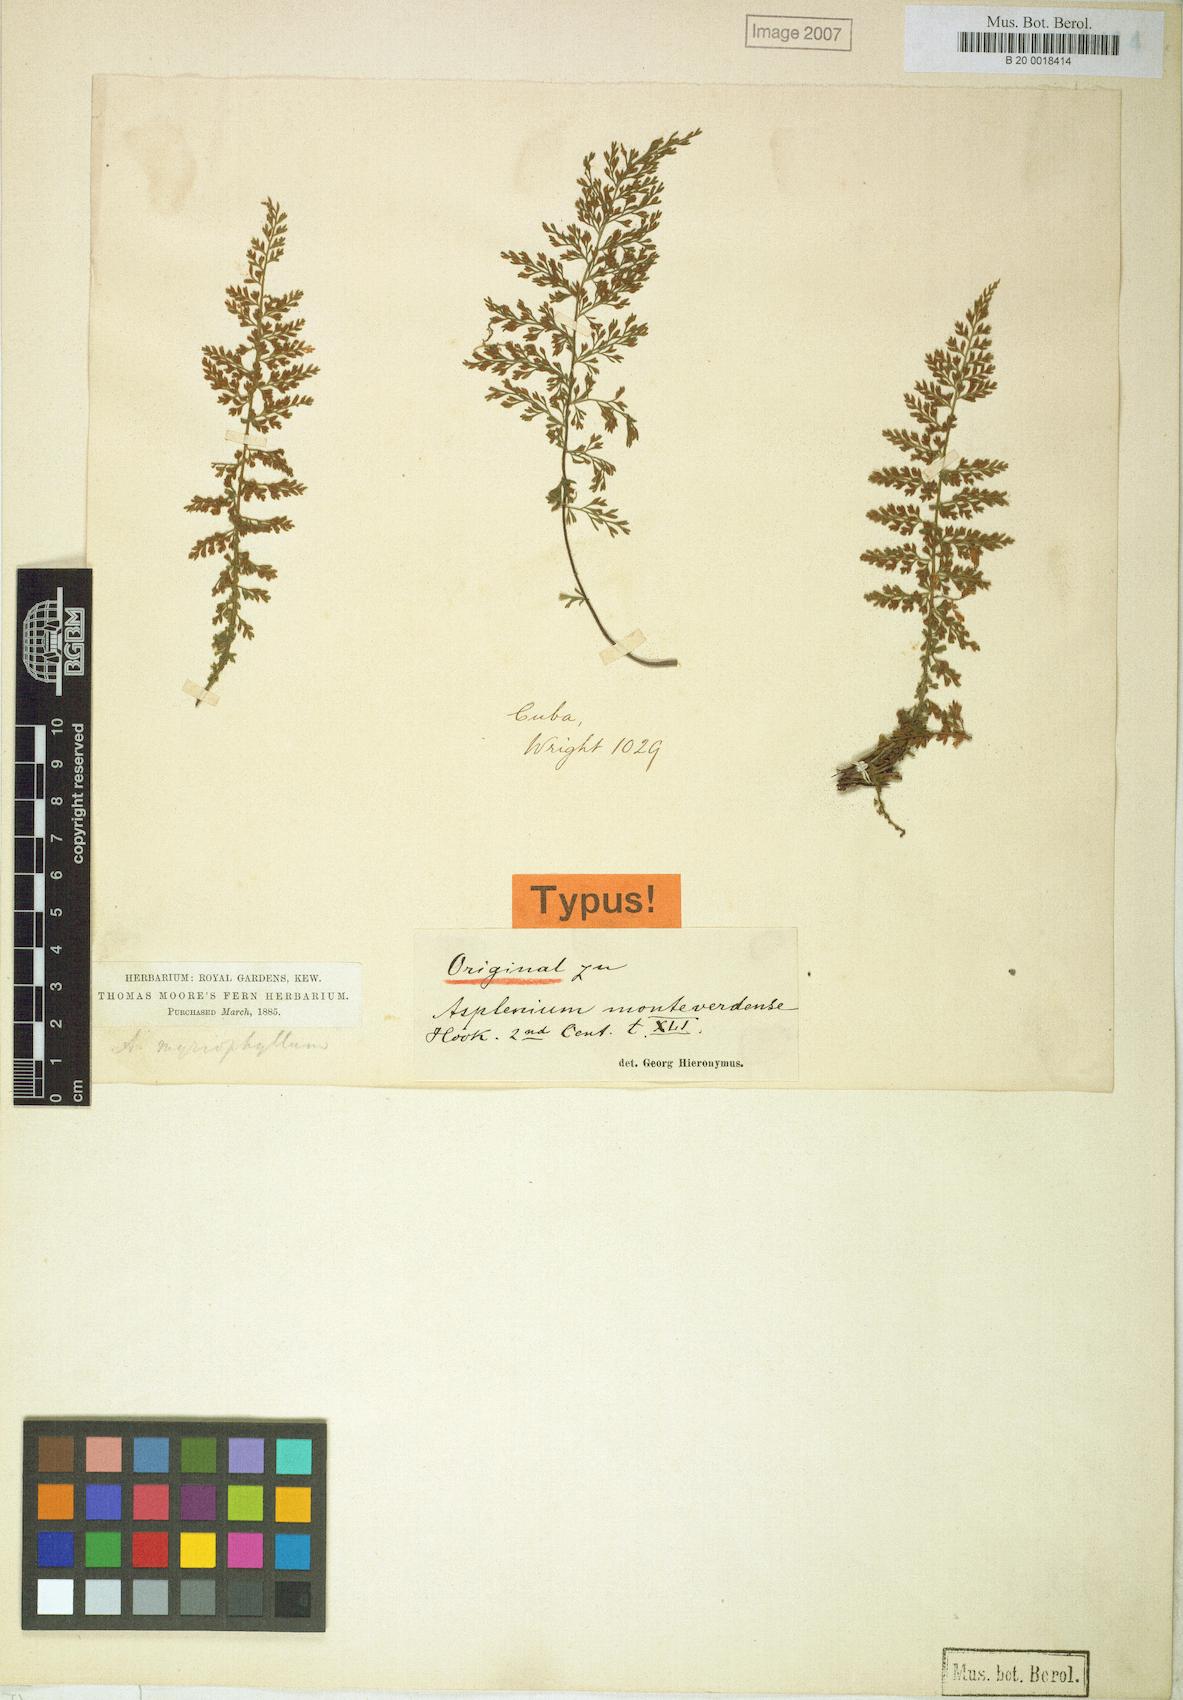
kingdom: Plantae
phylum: Tracheophyta
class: Polypodiopsida
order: Polypodiales
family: Aspleniaceae
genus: Asplenium
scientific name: Asplenium myriophyllum
